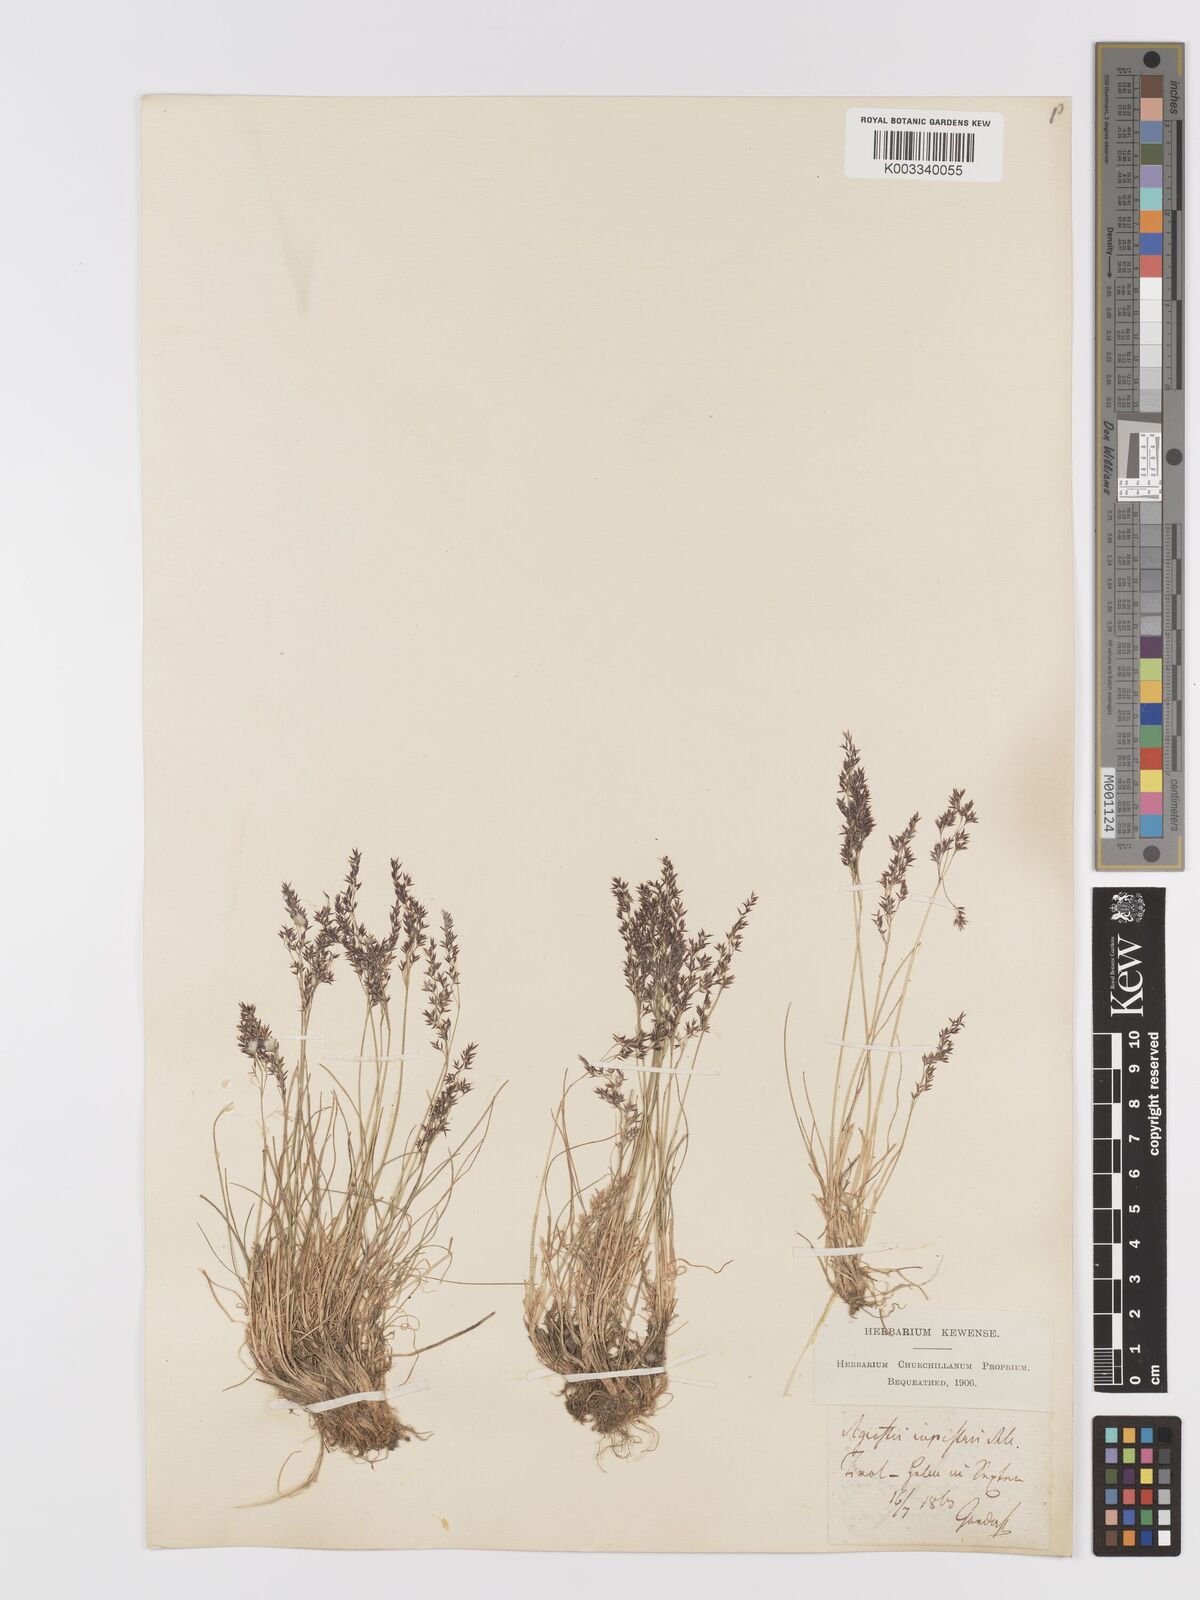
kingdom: Plantae
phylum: Tracheophyta
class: Liliopsida
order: Poales
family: Poaceae
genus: Agrostis
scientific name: Agrostis rupestris
